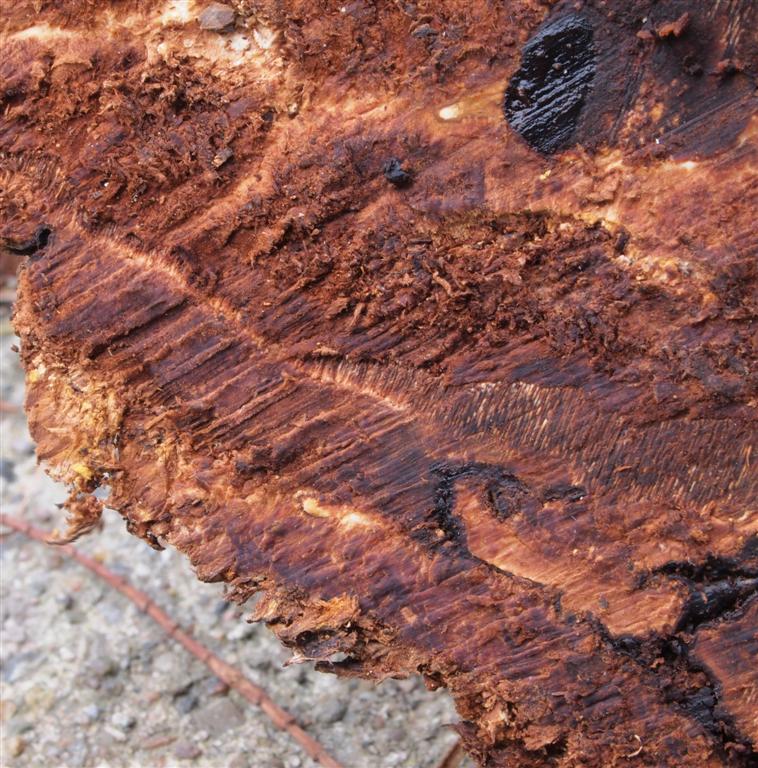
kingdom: Fungi
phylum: Basidiomycota
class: Agaricomycetes
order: Polyporales
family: Polyporaceae
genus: Ganoderma
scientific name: Ganoderma applanatum
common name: flad lakporesvamp
